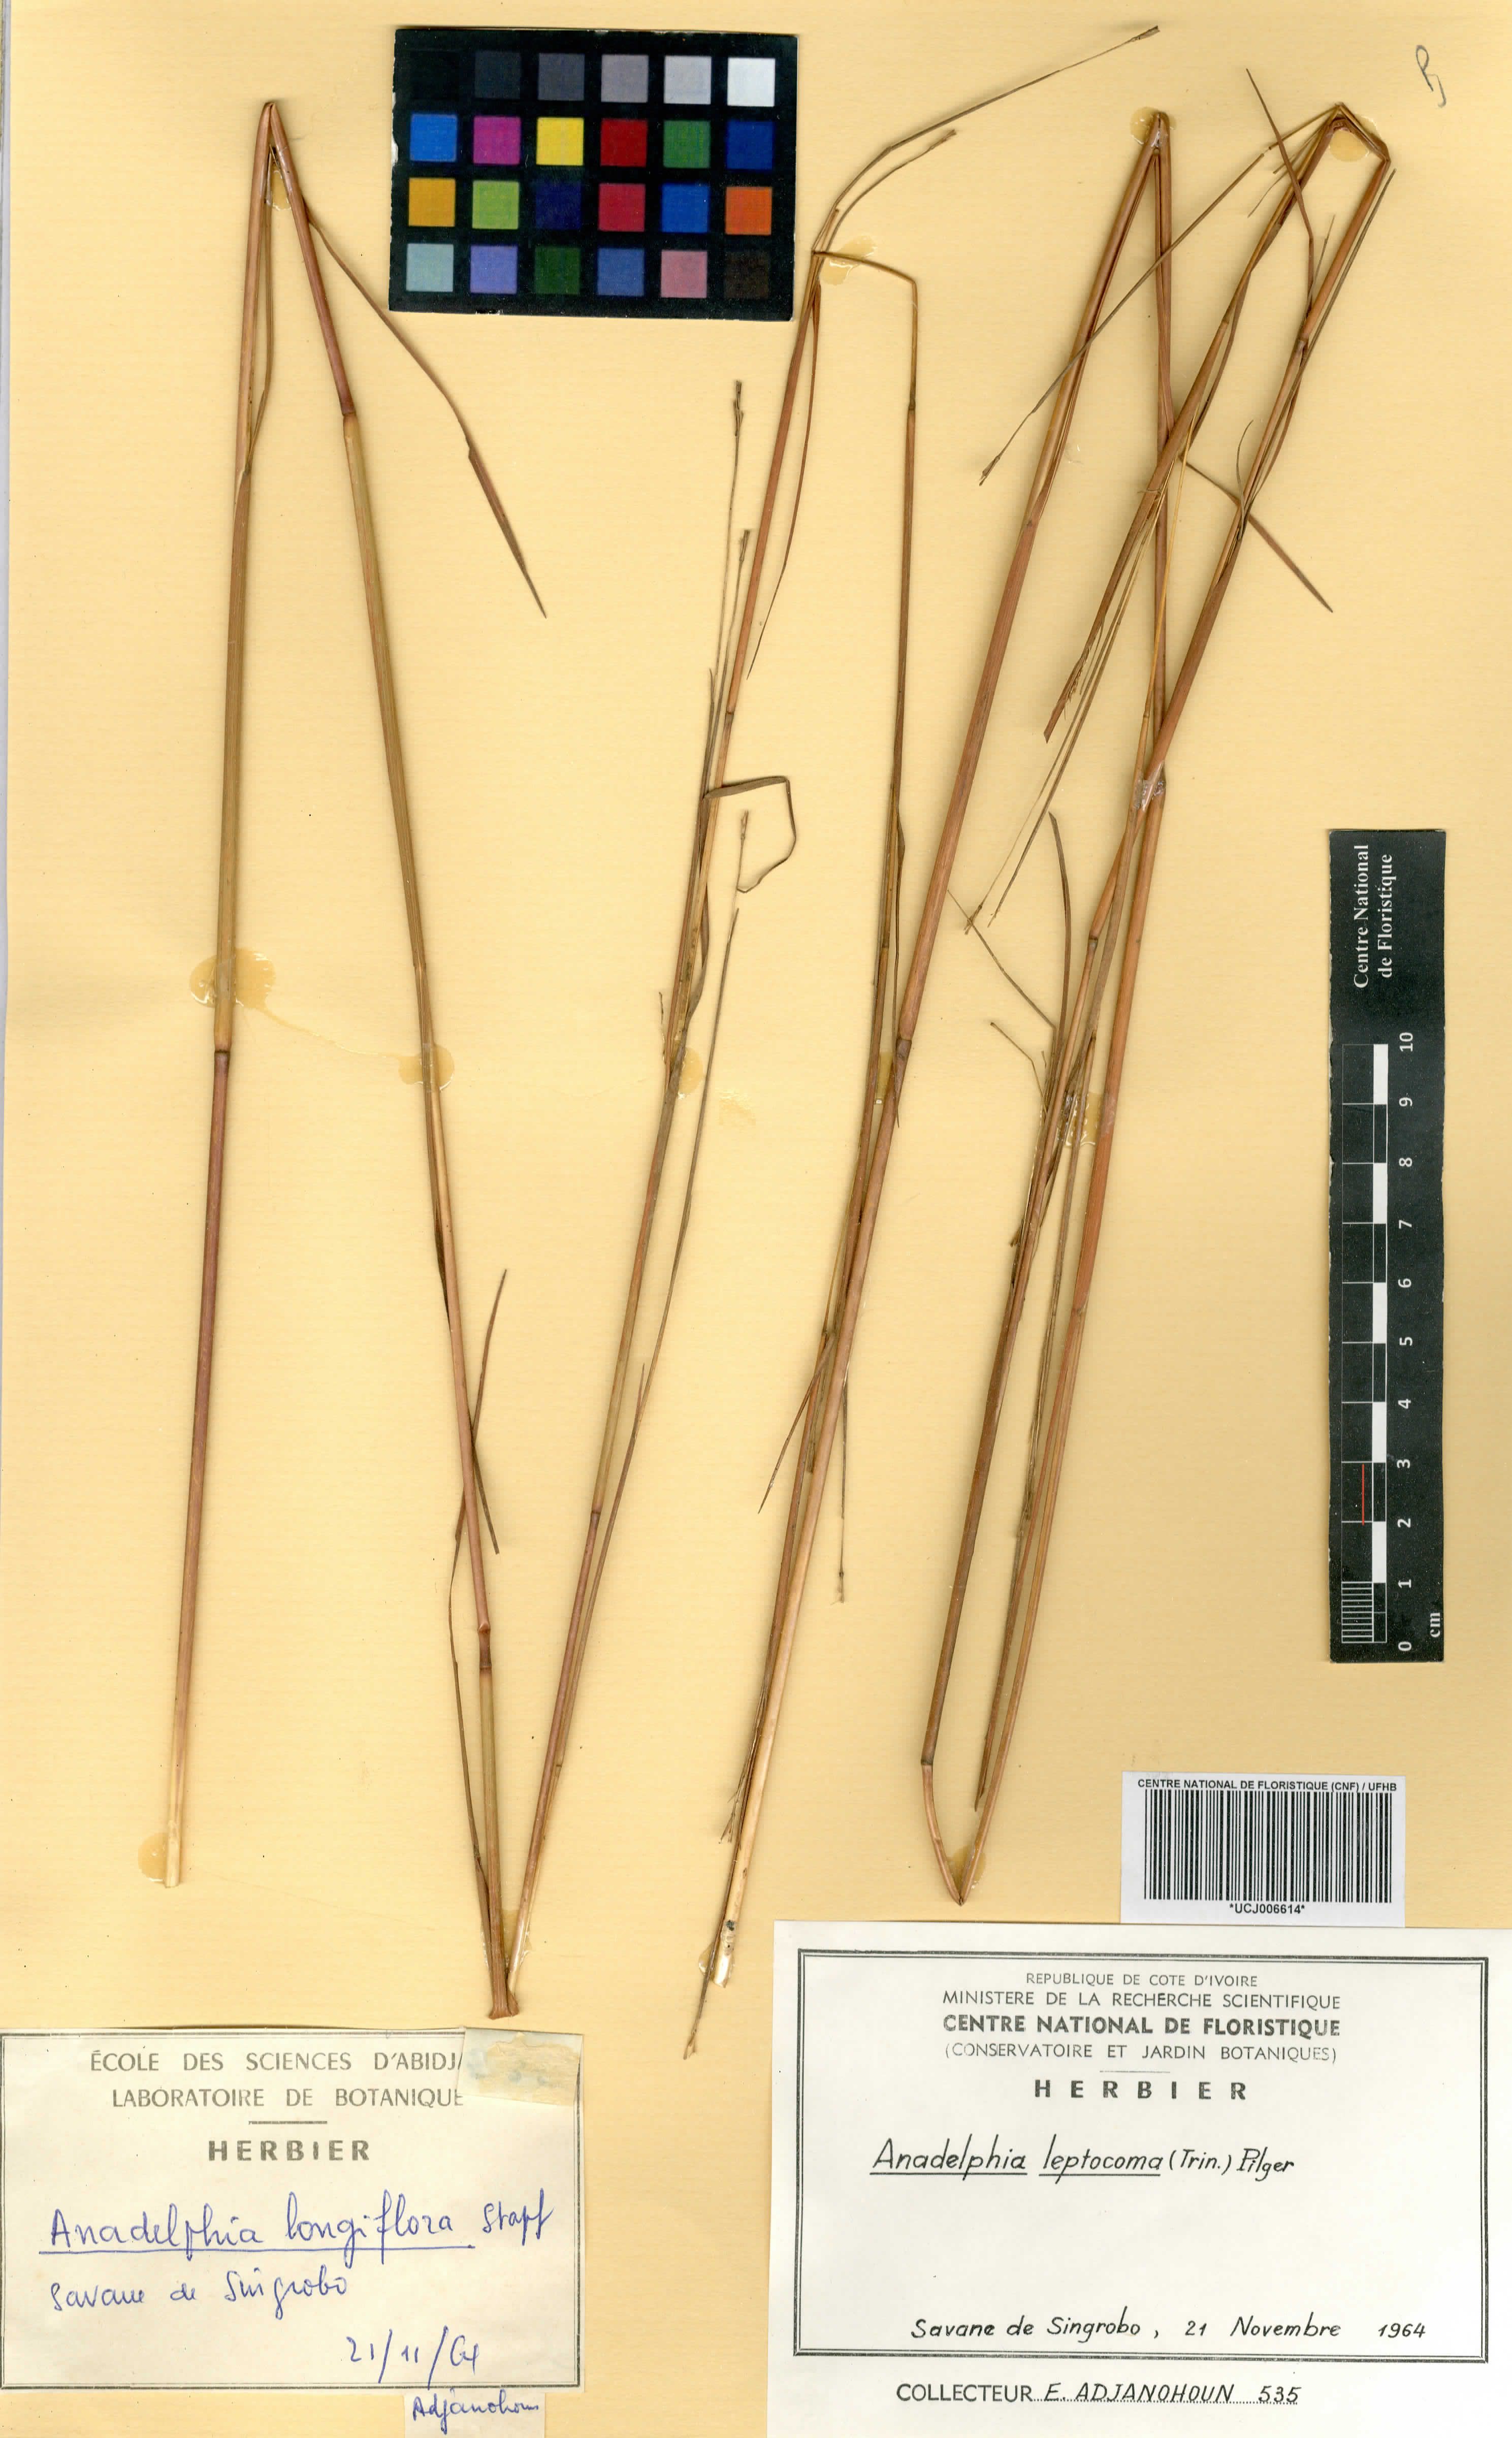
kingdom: Plantae
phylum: Tracheophyta
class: Liliopsida
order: Poales
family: Poaceae
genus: Anadelphia
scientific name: Anadelphia leptocoma
